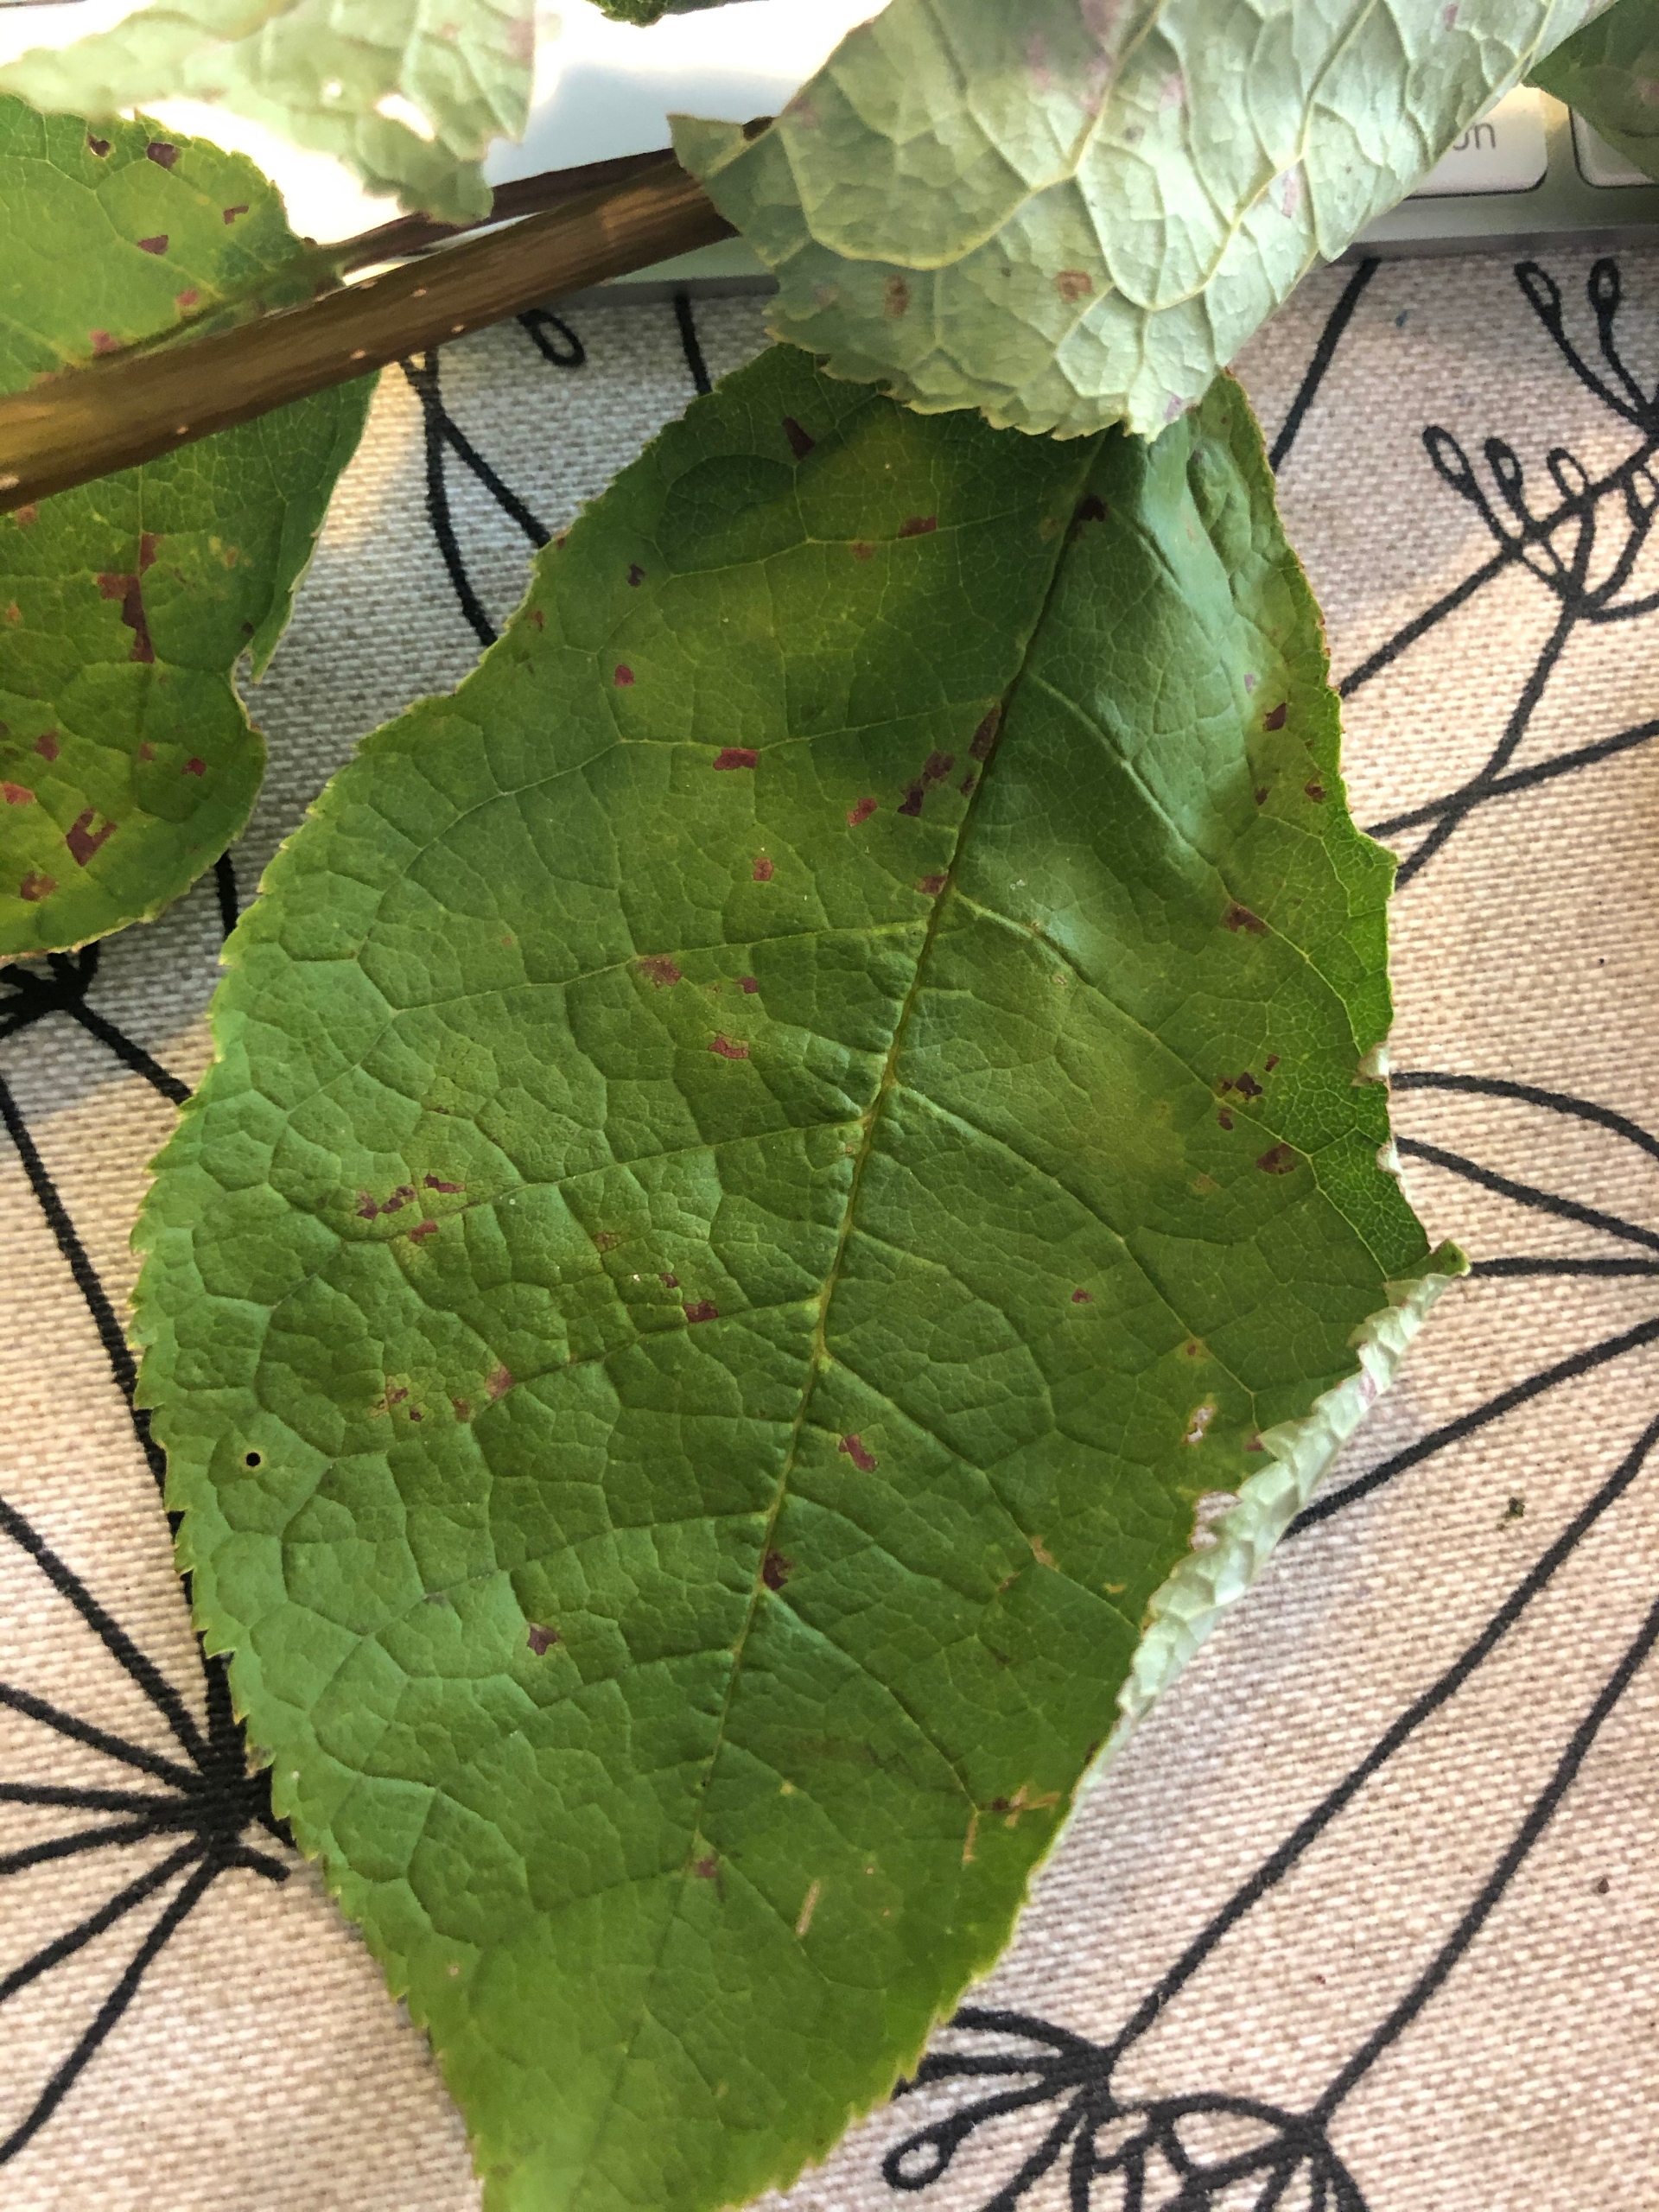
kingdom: Plantae
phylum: Tracheophyta
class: Magnoliopsida
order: Rosales
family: Rosaceae
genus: Prunus
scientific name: Prunus padus
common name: Almindelig hæg
